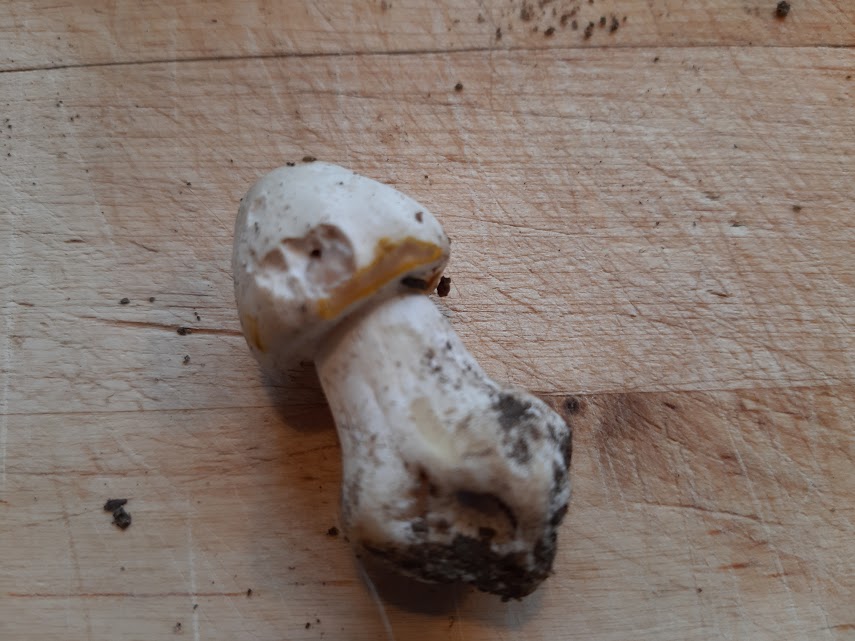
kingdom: Fungi
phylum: Basidiomycota
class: Agaricomycetes
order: Agaricales
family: Agaricaceae
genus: Agaricus
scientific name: Agaricus xanthodermus
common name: karbol-champignon
